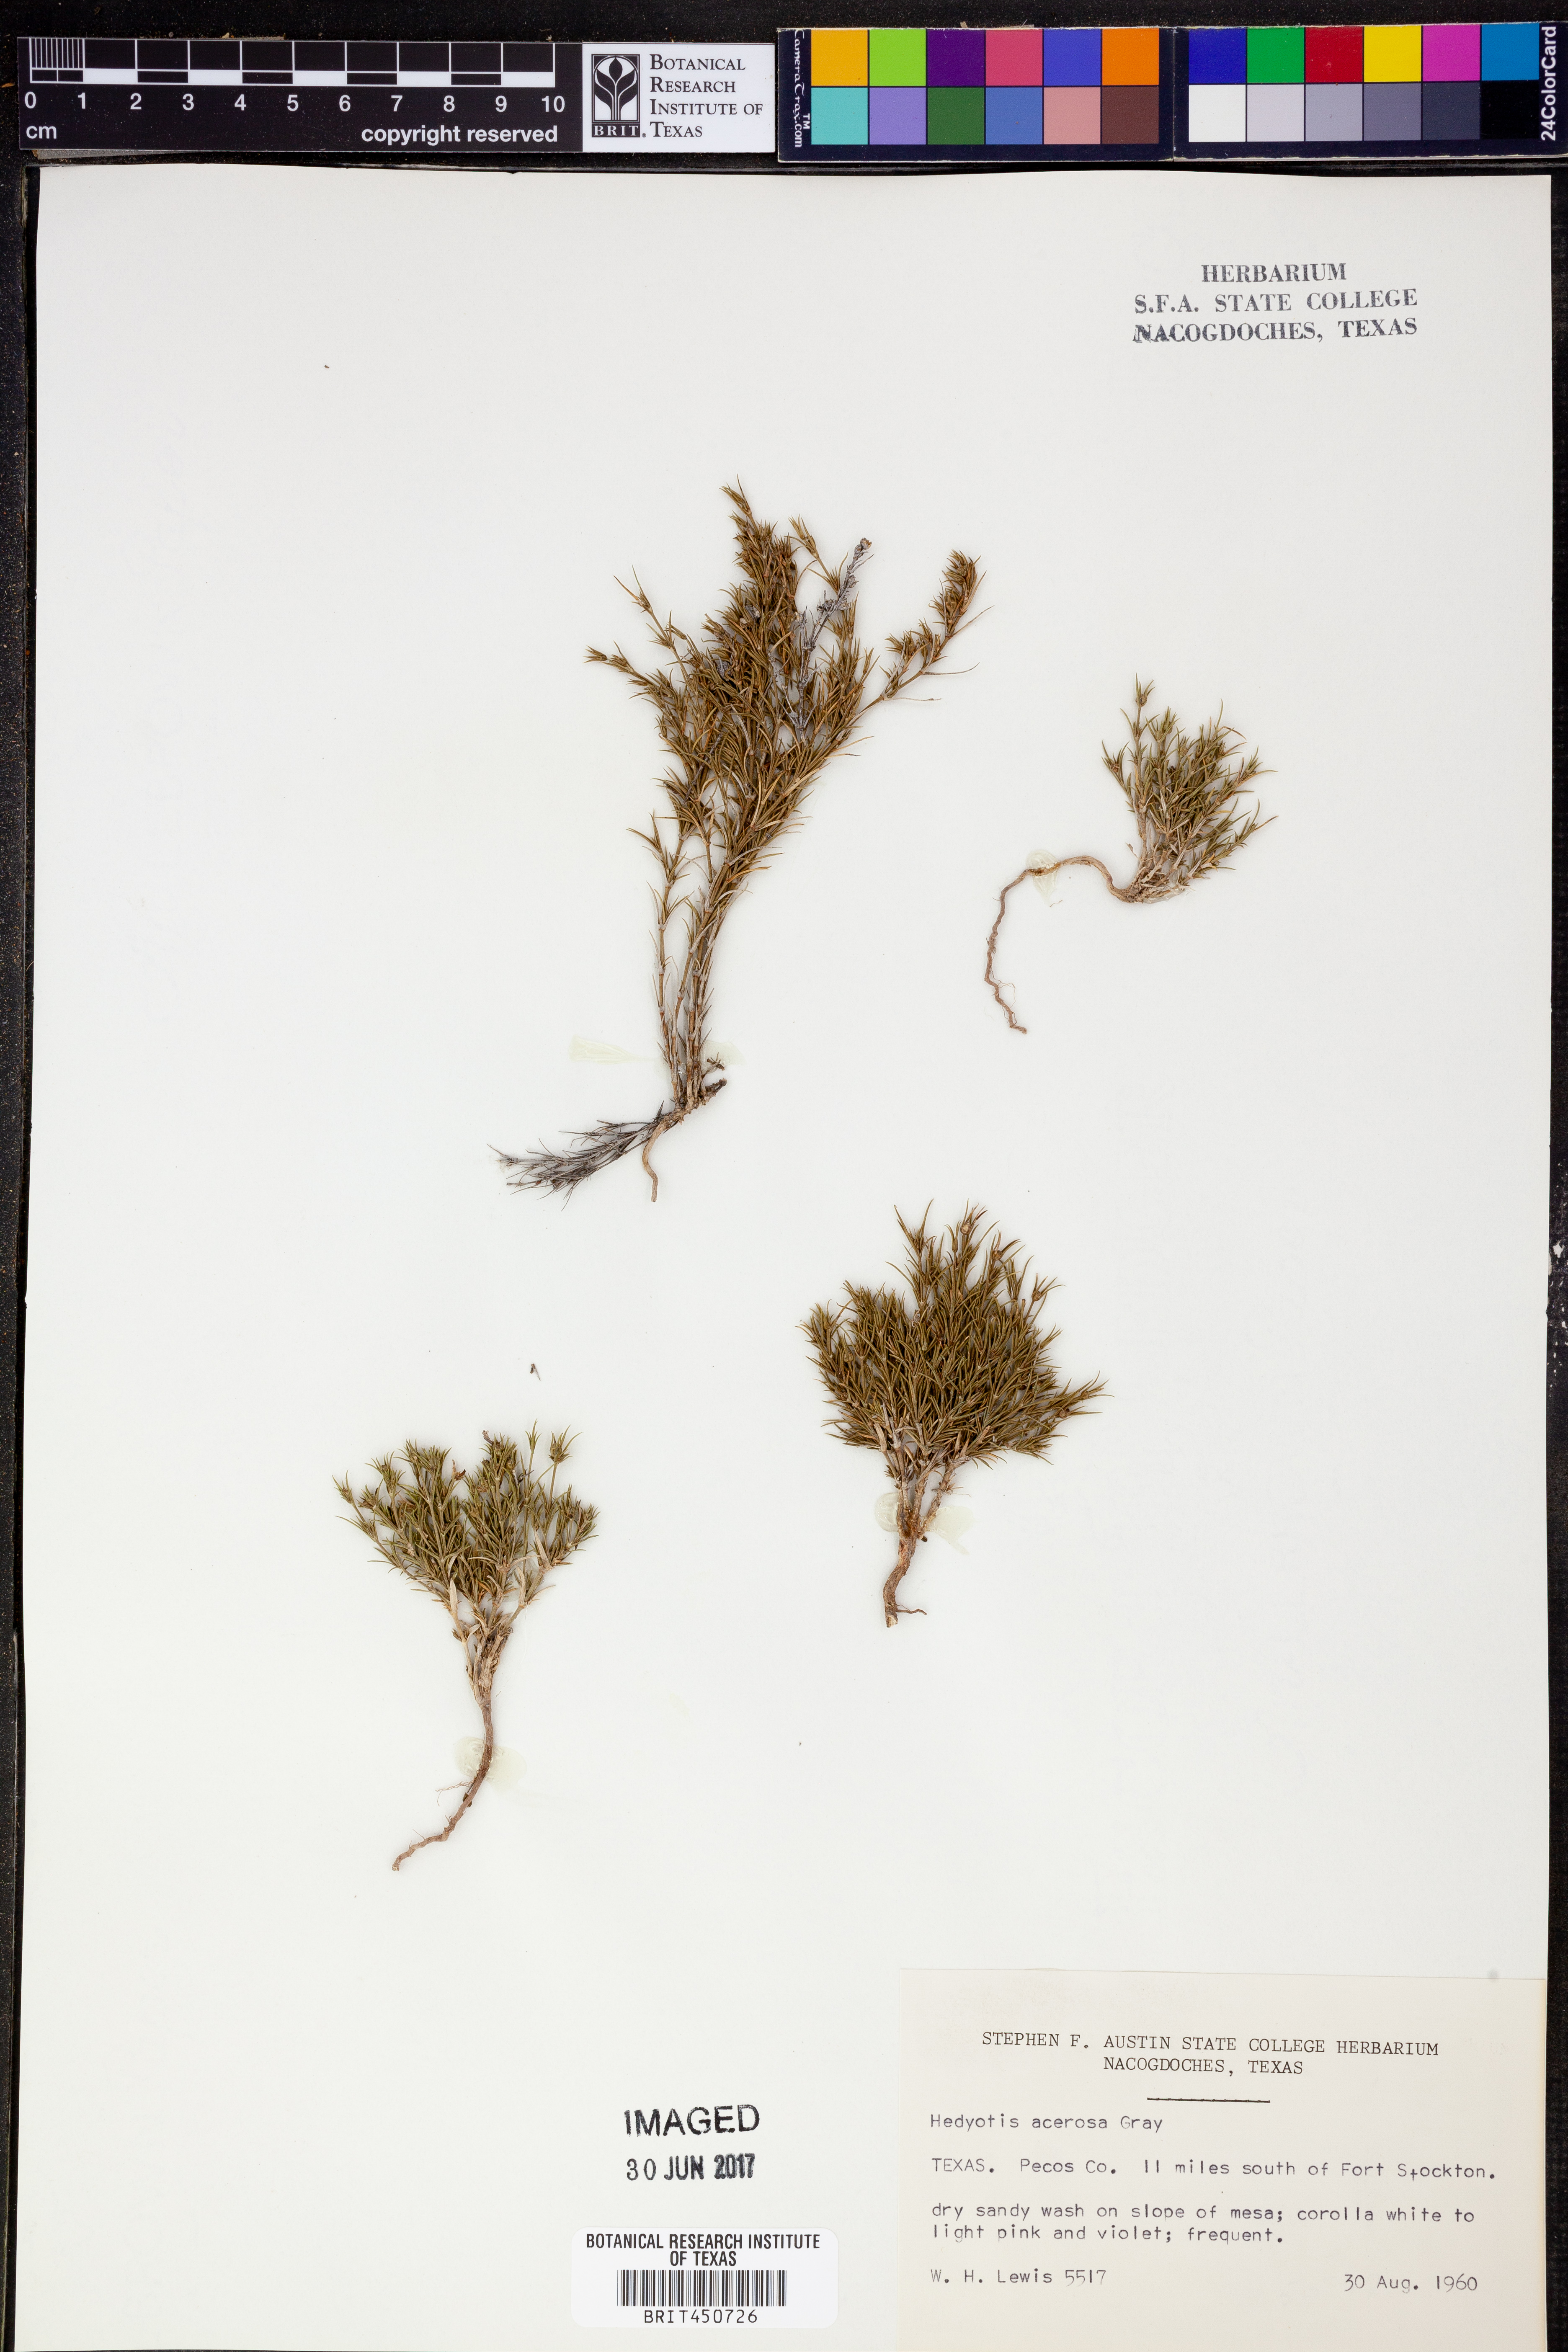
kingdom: Plantae
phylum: Tracheophyta
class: Magnoliopsida
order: Gentianales
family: Rubiaceae
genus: Houstonia
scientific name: Houstonia acerosa
